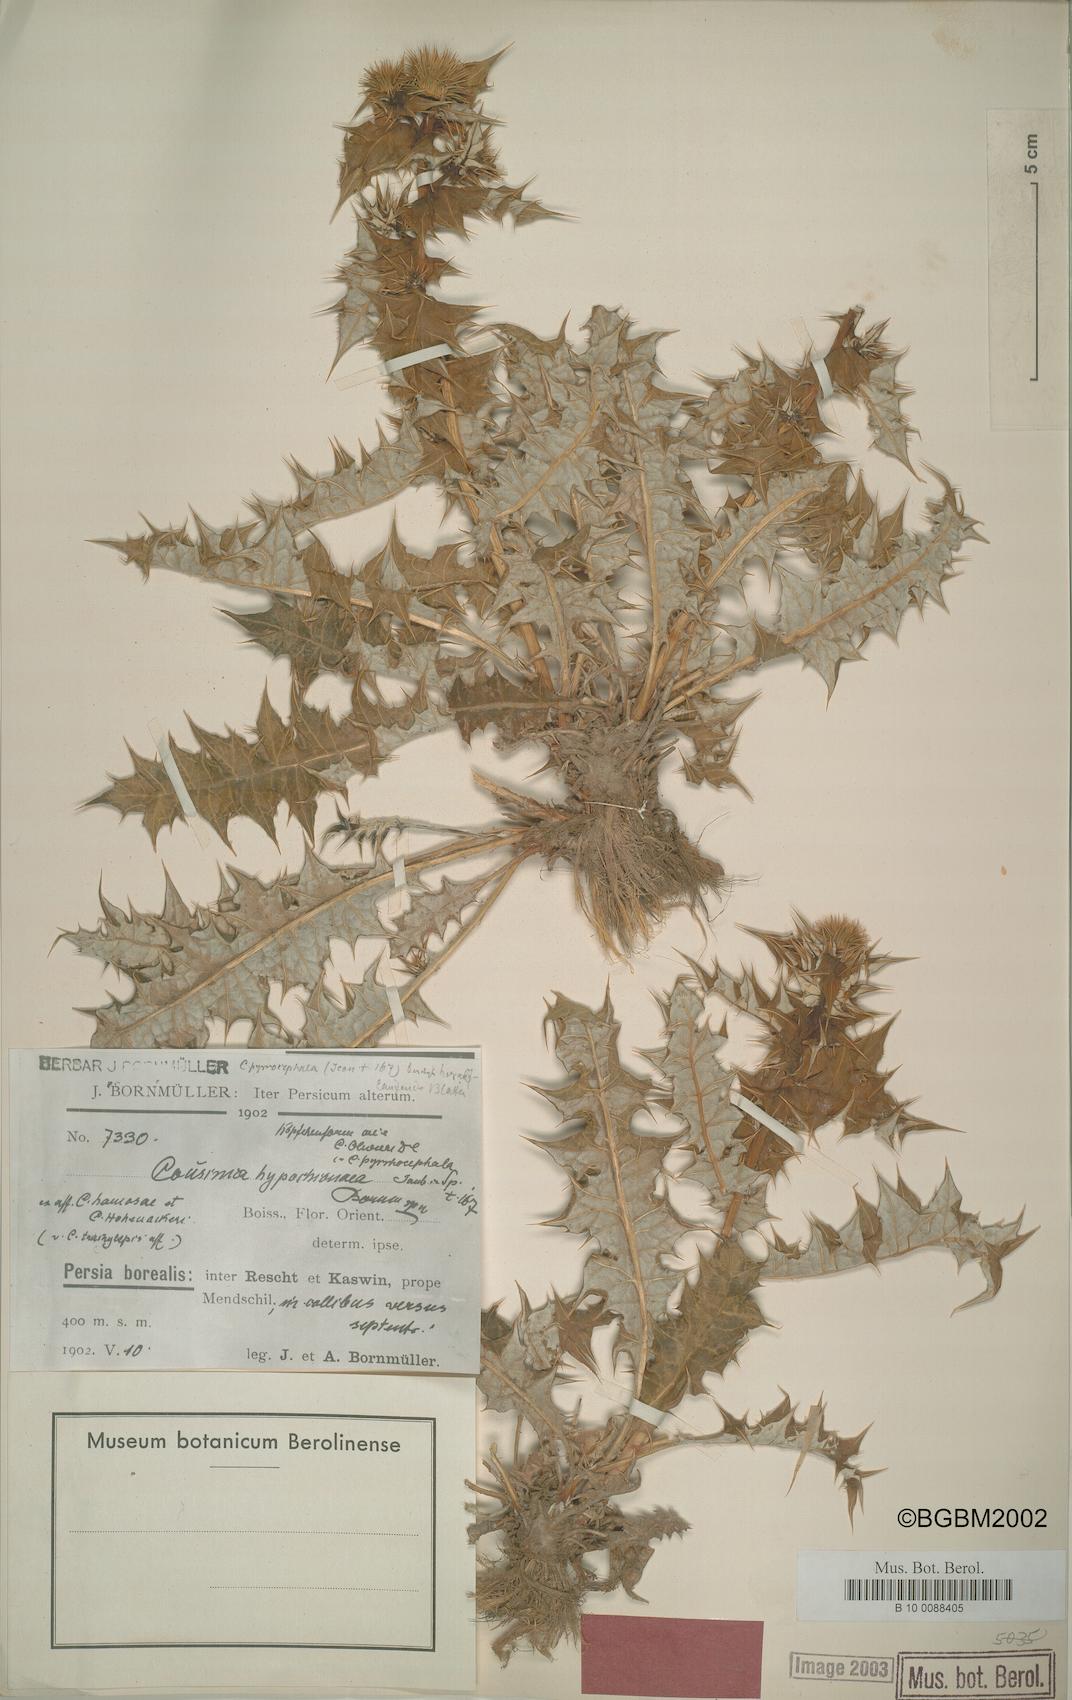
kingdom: Plantae
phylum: Tracheophyta
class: Magnoliopsida
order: Asterales
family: Asteraceae
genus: Cousinia
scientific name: Cousinia hypochionea
